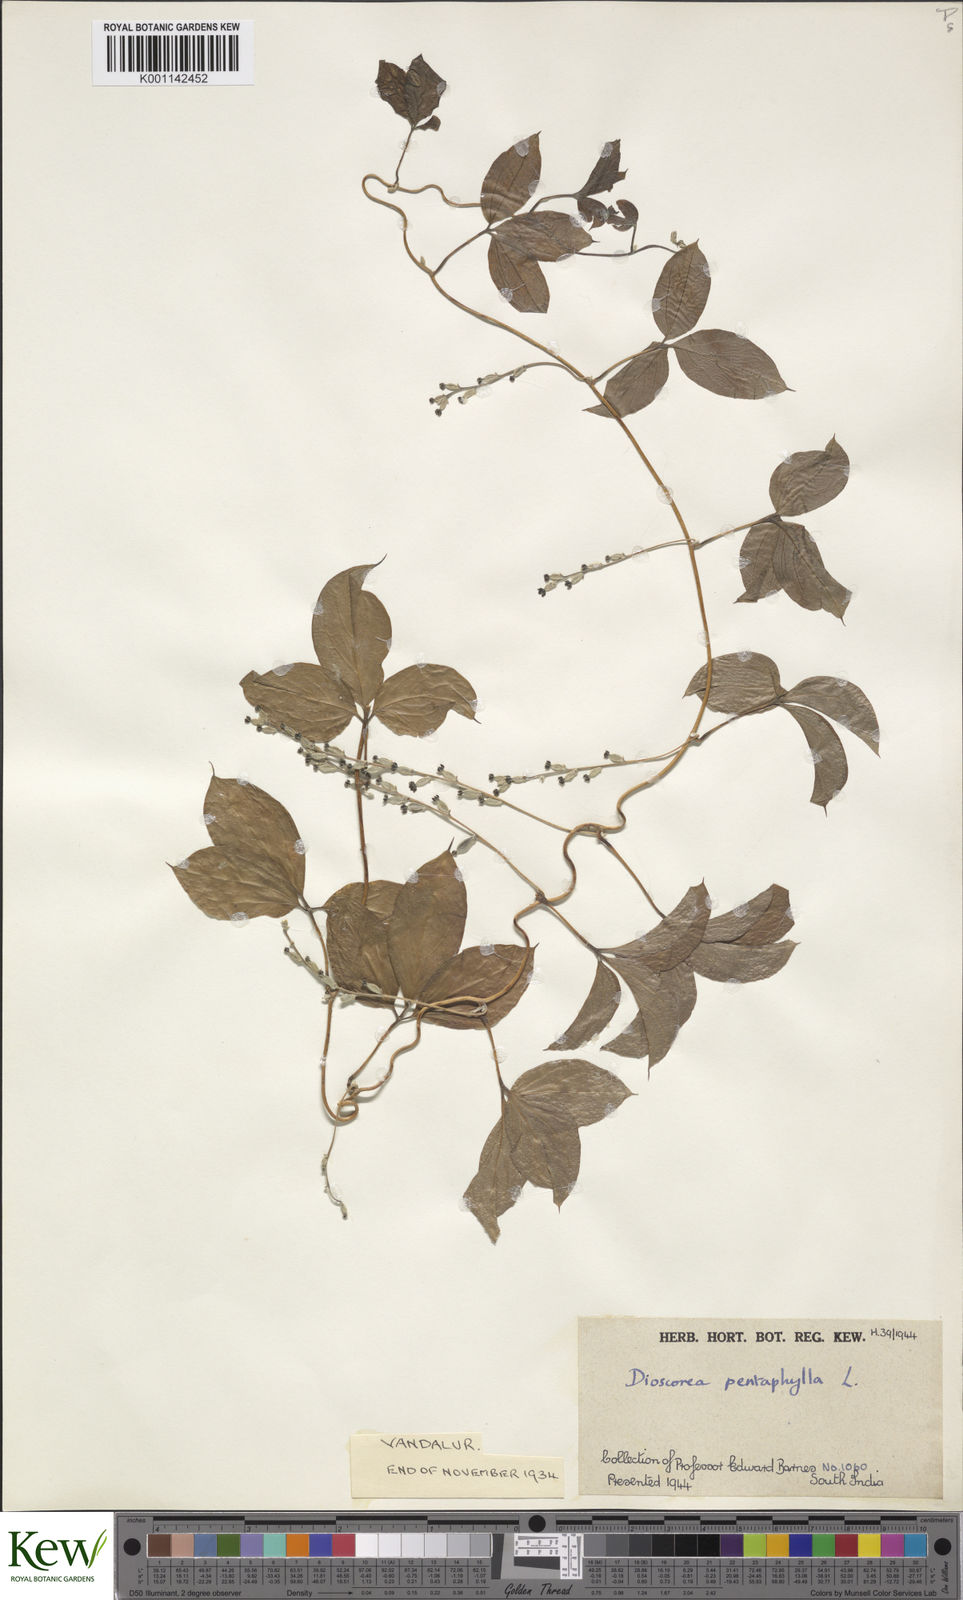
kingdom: Plantae
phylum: Tracheophyta
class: Liliopsida
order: Dioscoreales
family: Dioscoreaceae
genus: Dioscorea
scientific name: Dioscorea pentaphylla
